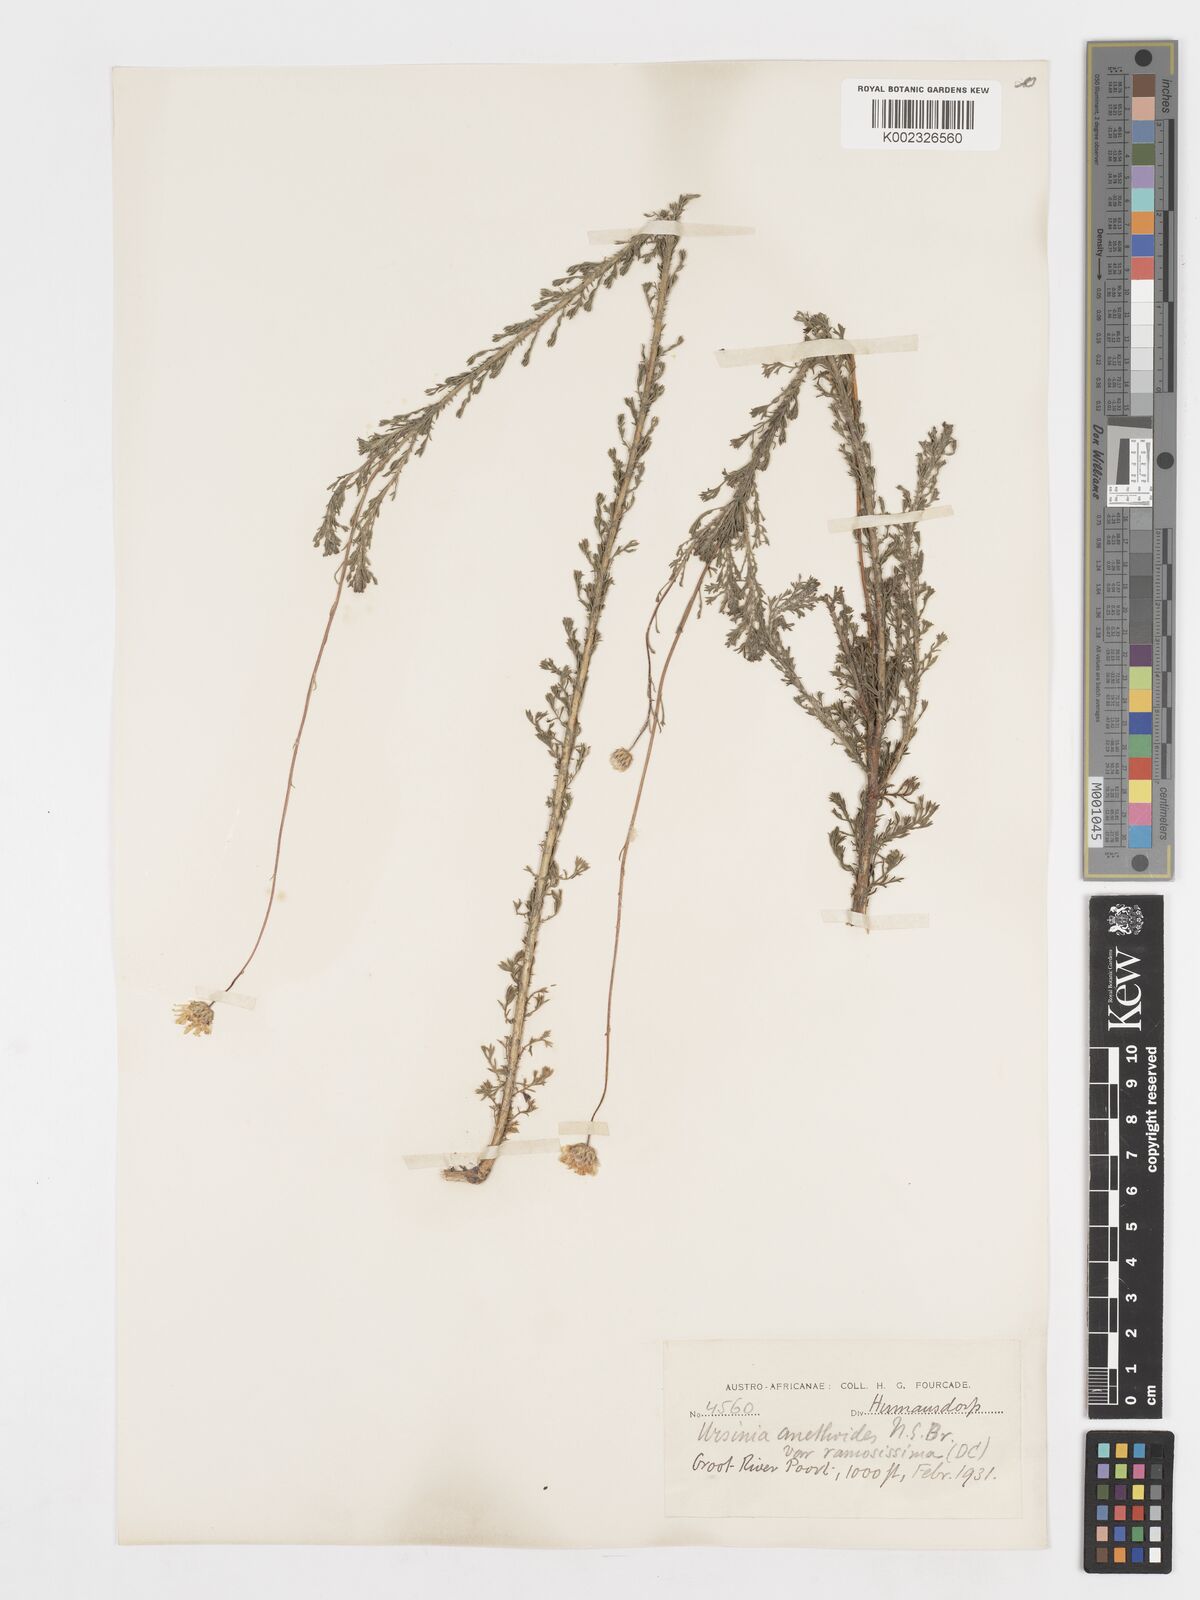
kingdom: Plantae
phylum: Tracheophyta
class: Magnoliopsida
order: Asterales
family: Asteraceae
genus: Ursinia
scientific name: Ursinia anethoides
